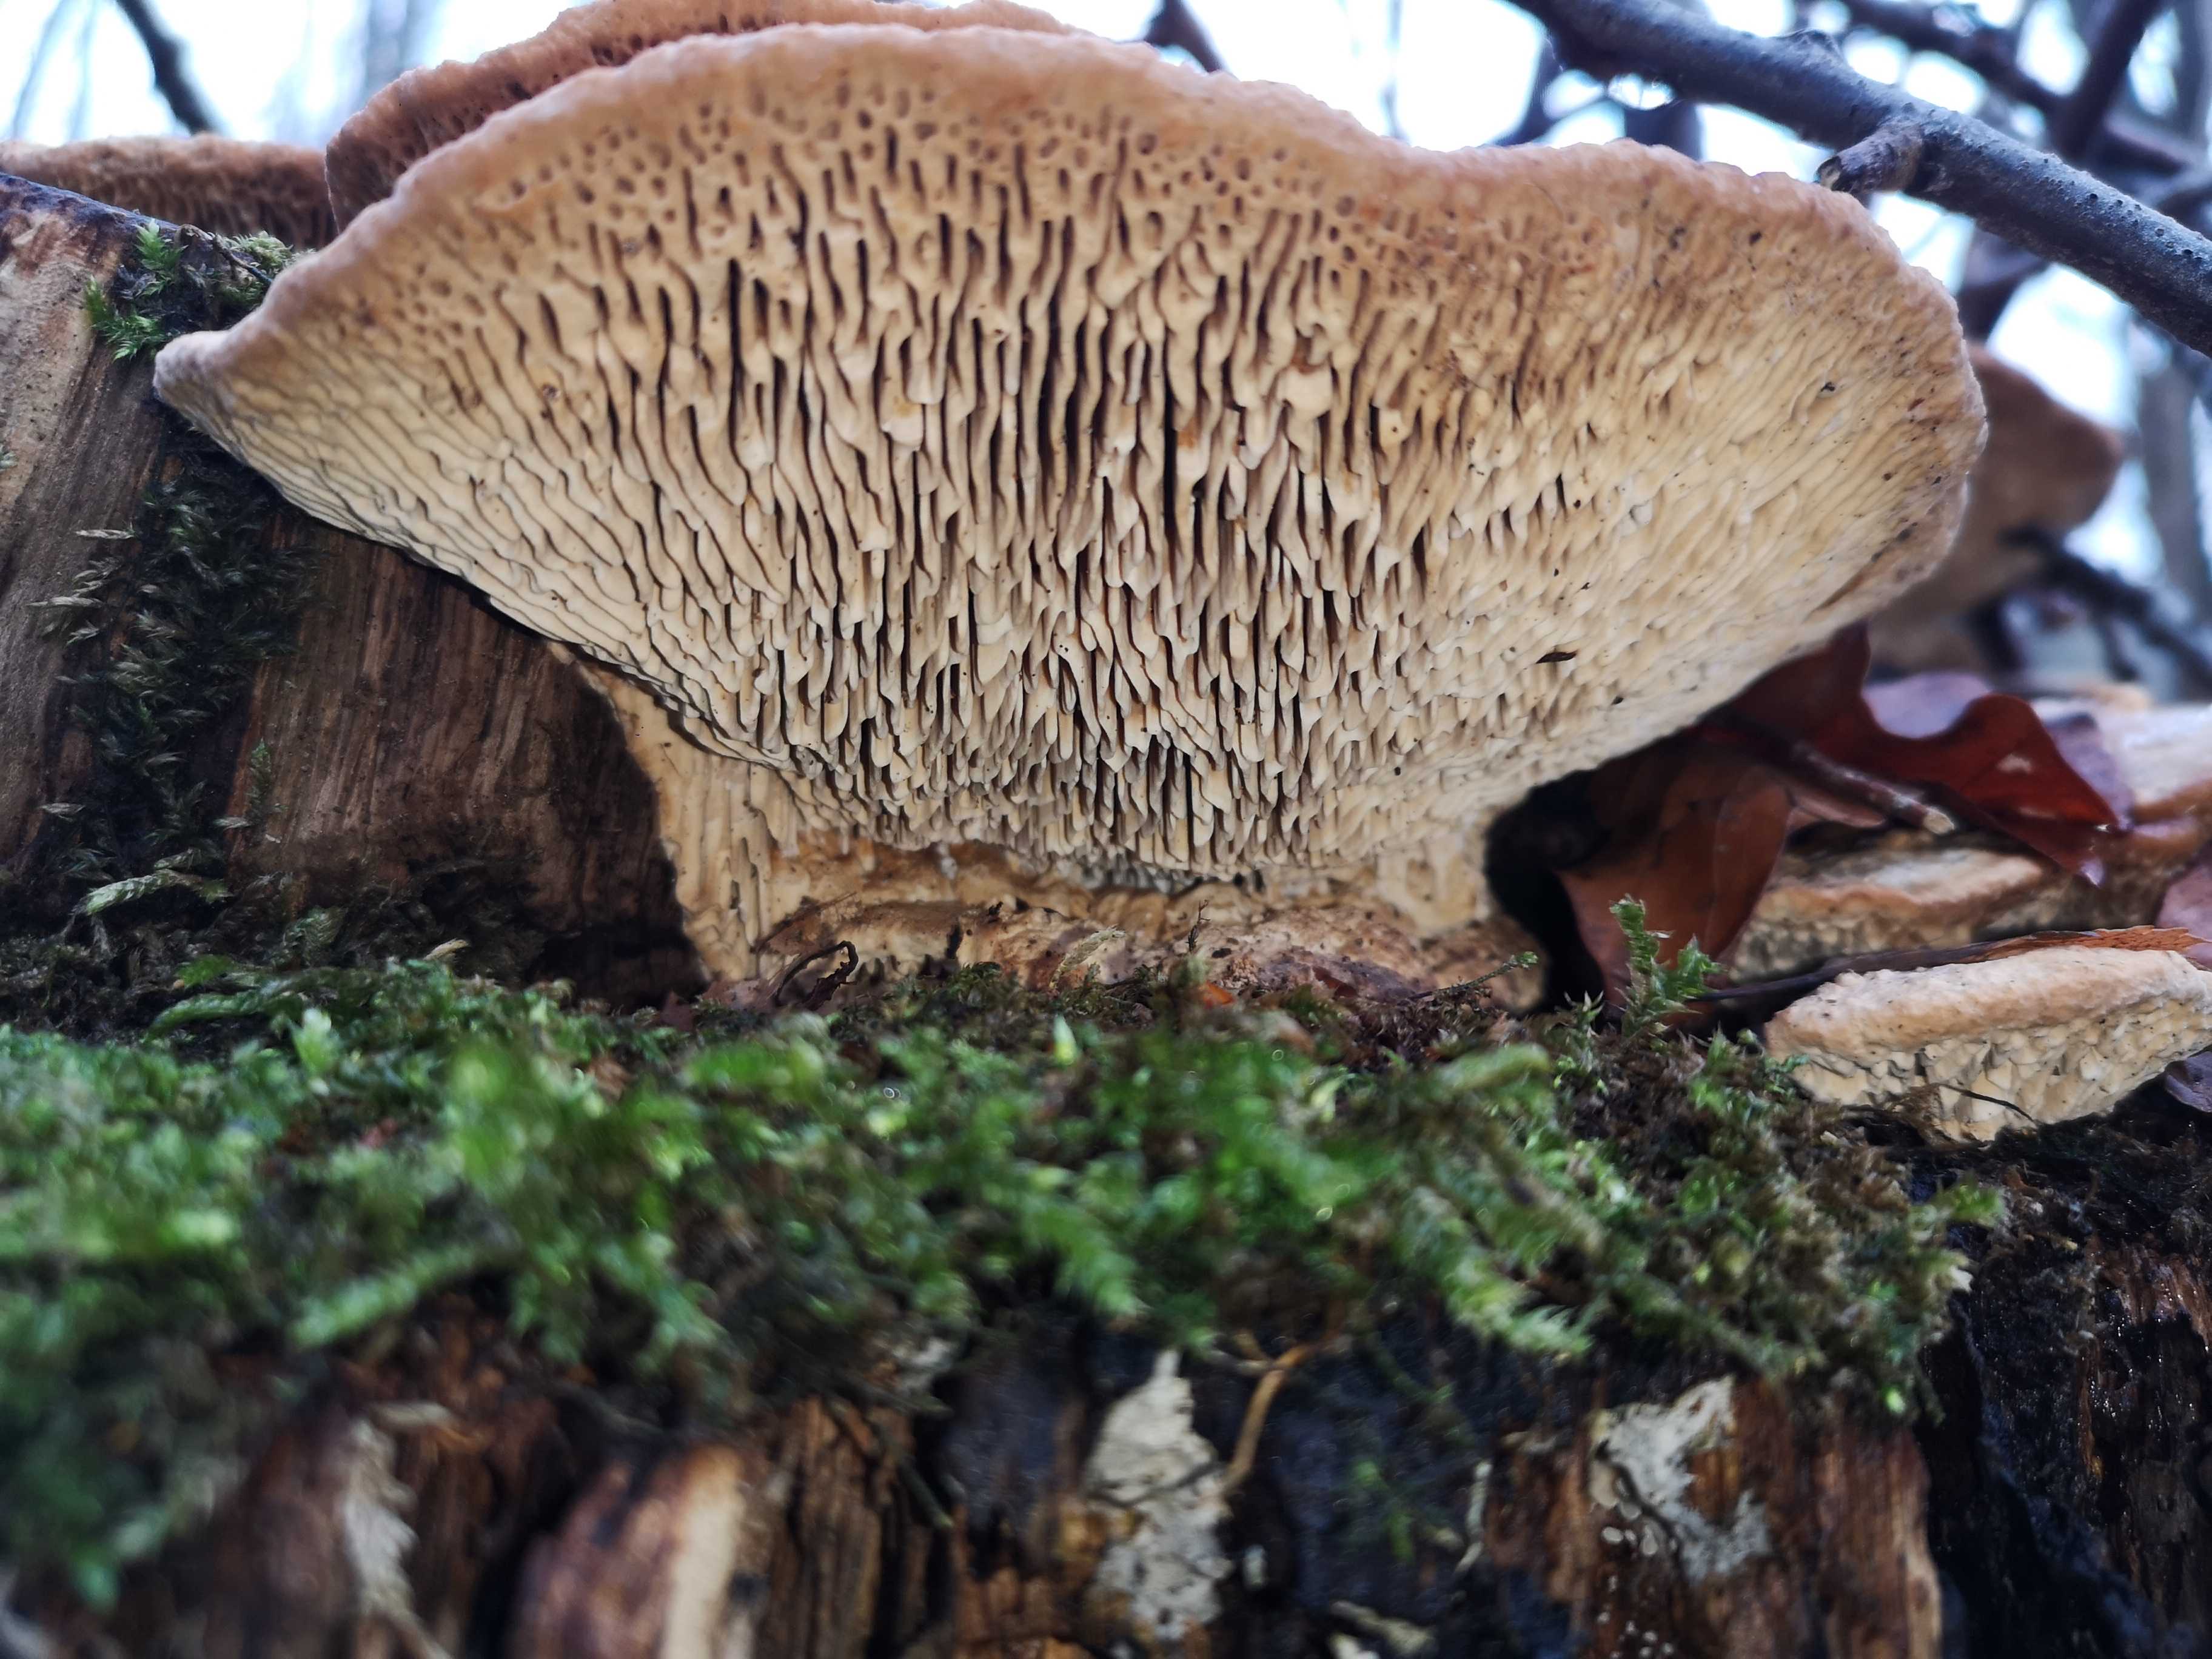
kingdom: Fungi
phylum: Basidiomycota
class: Agaricomycetes
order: Polyporales
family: Fomitopsidaceae
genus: Daedalea
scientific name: Daedalea quercina
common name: ege-labyrintsvamp
